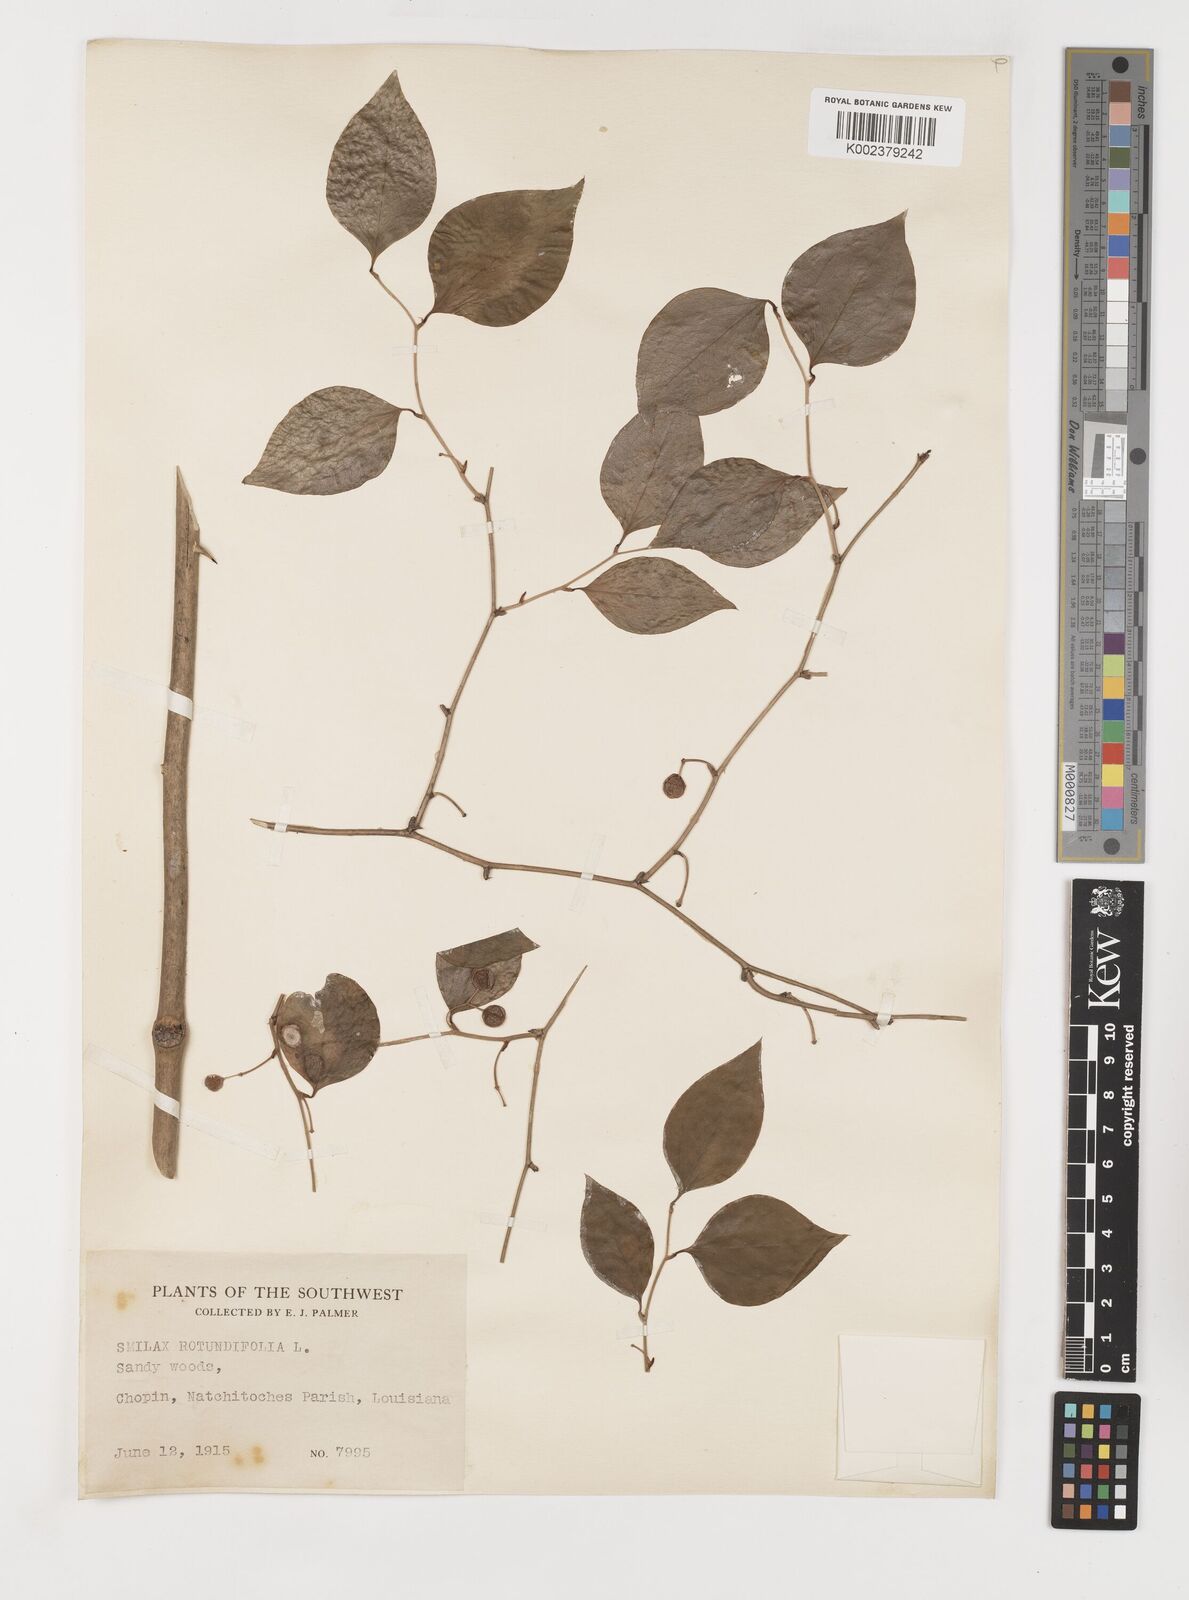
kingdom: Plantae
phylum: Tracheophyta
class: Liliopsida
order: Liliales
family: Smilacaceae
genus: Smilax
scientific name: Smilax rotundifolia
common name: Bullbriar
